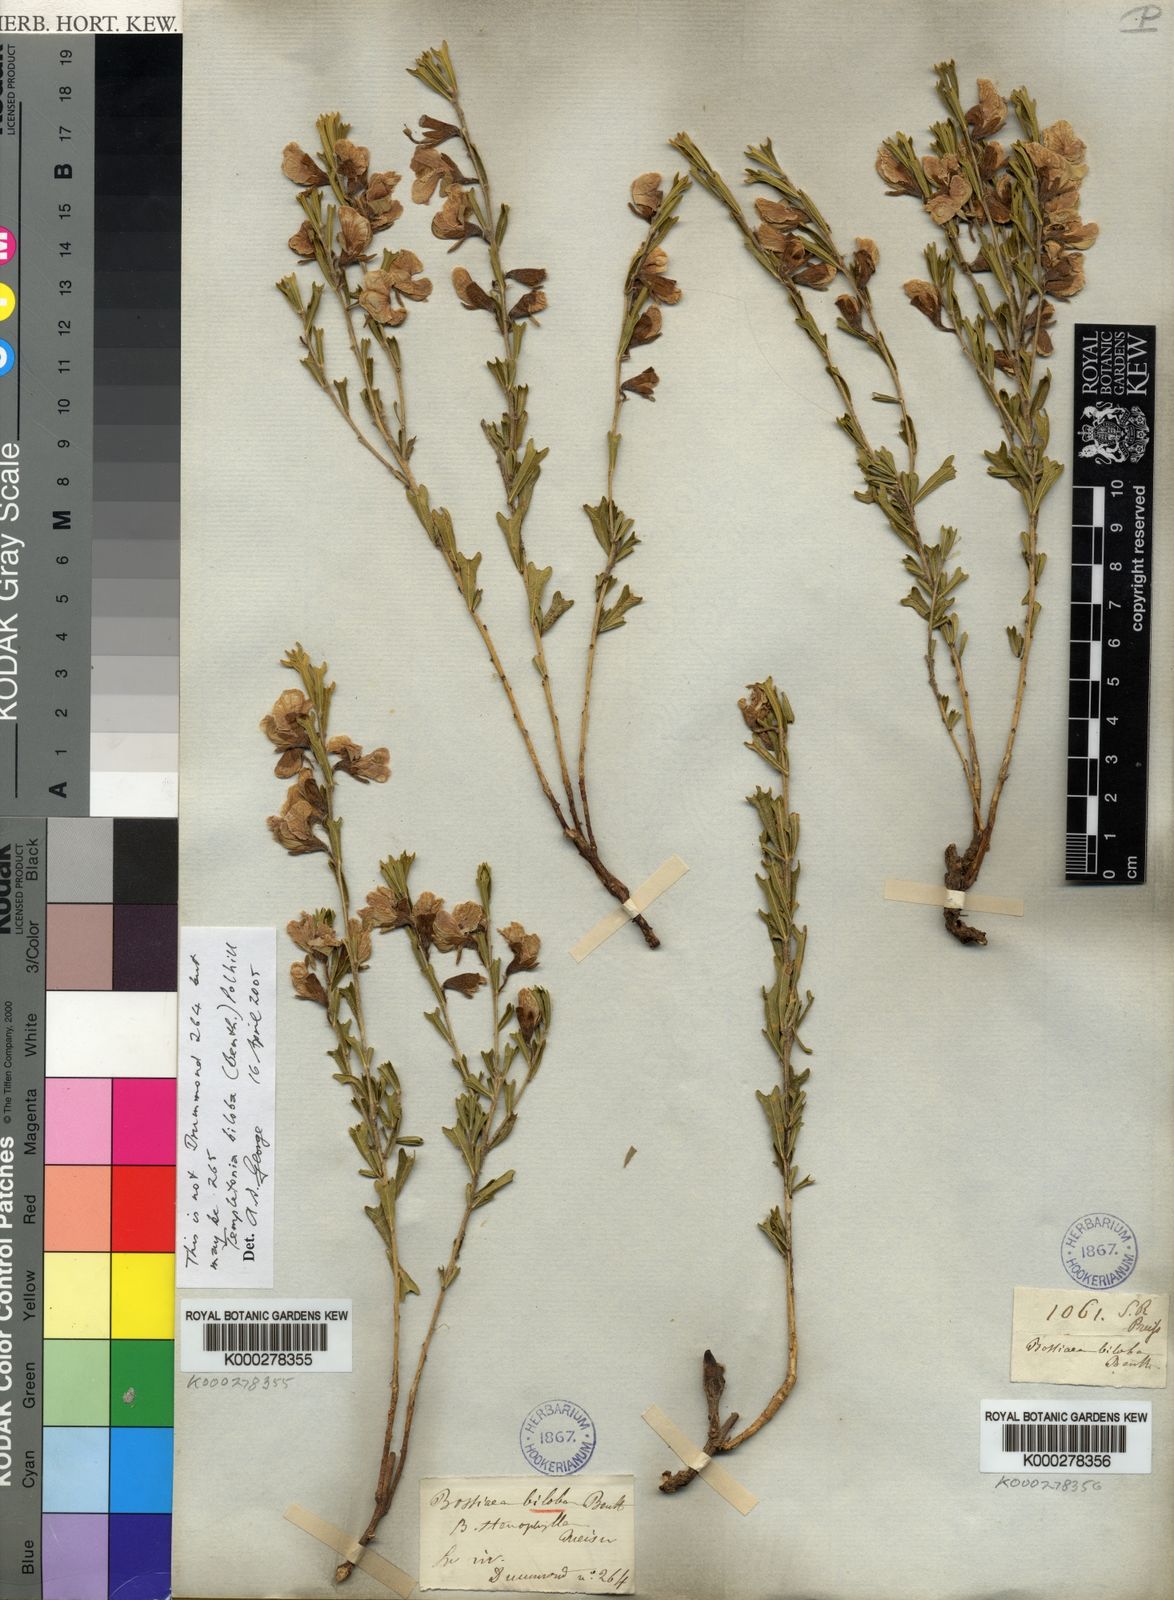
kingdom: Plantae
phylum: Tracheophyta
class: Magnoliopsida
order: Fabales
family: Fabaceae
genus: Cristonia
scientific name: Cristonia biloba
